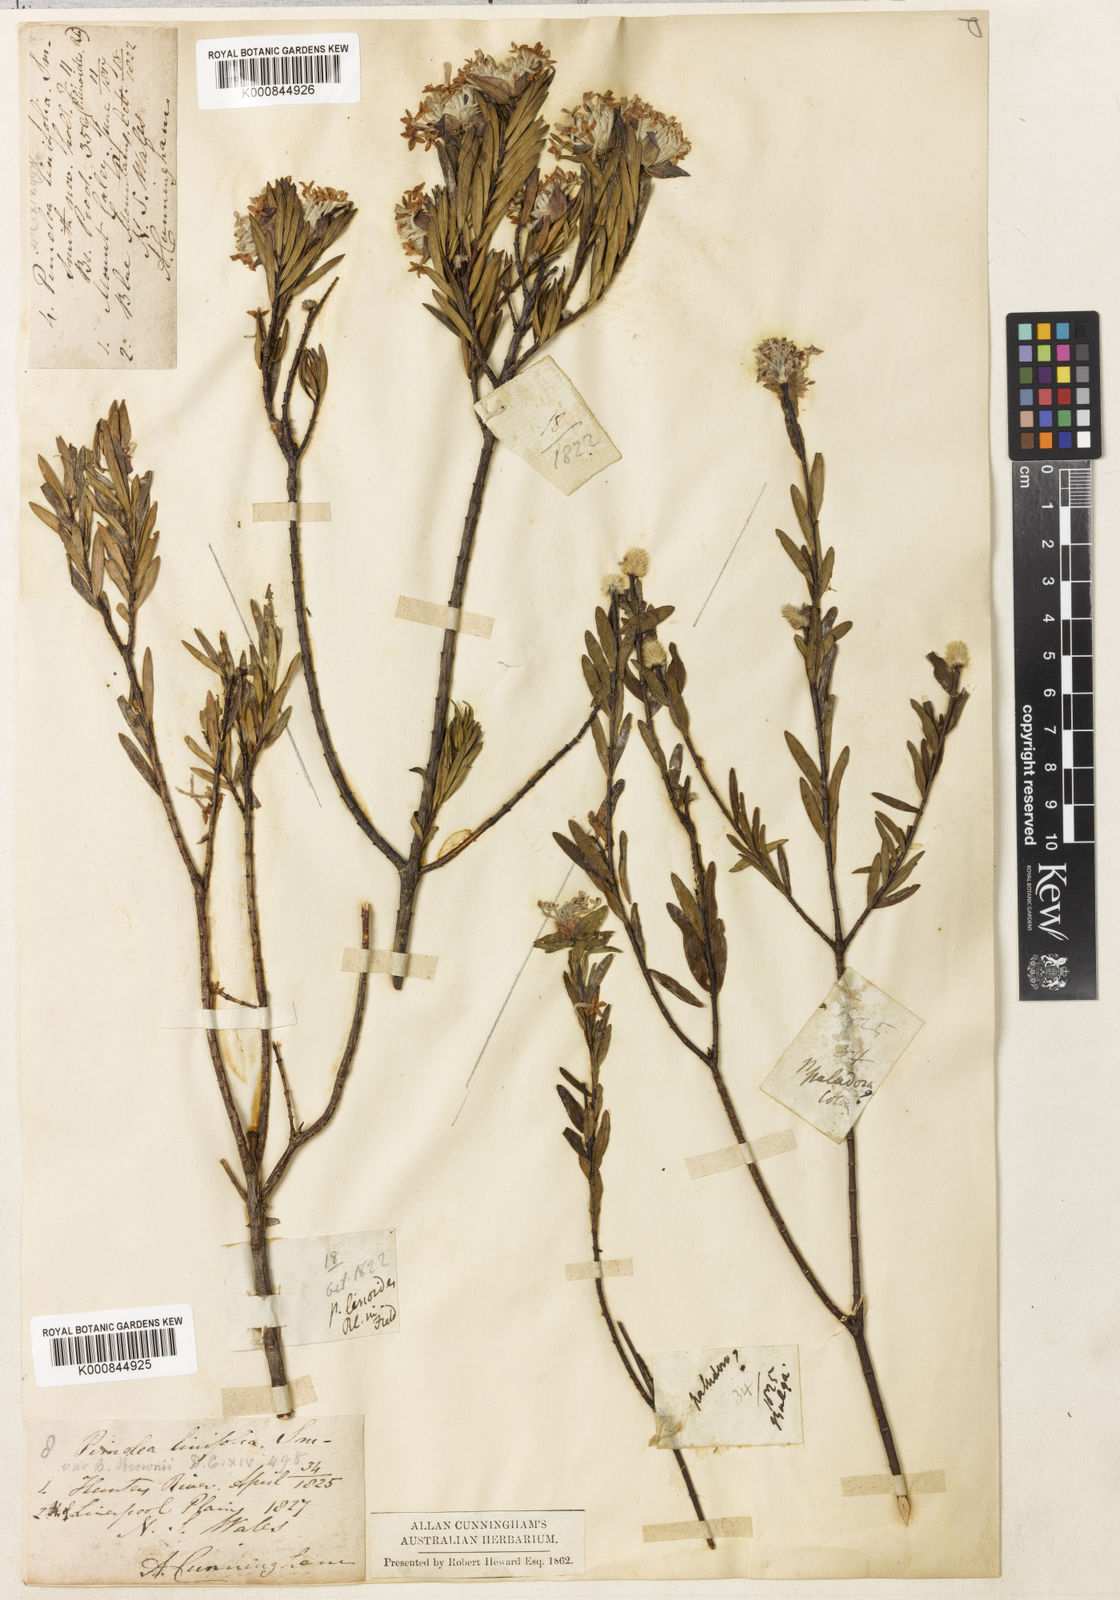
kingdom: Plantae
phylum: Tracheophyta
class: Magnoliopsida
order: Malvales
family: Thymelaeaceae
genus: Pimelea
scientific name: Pimelea linifolia
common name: Queen-of-the-bush
